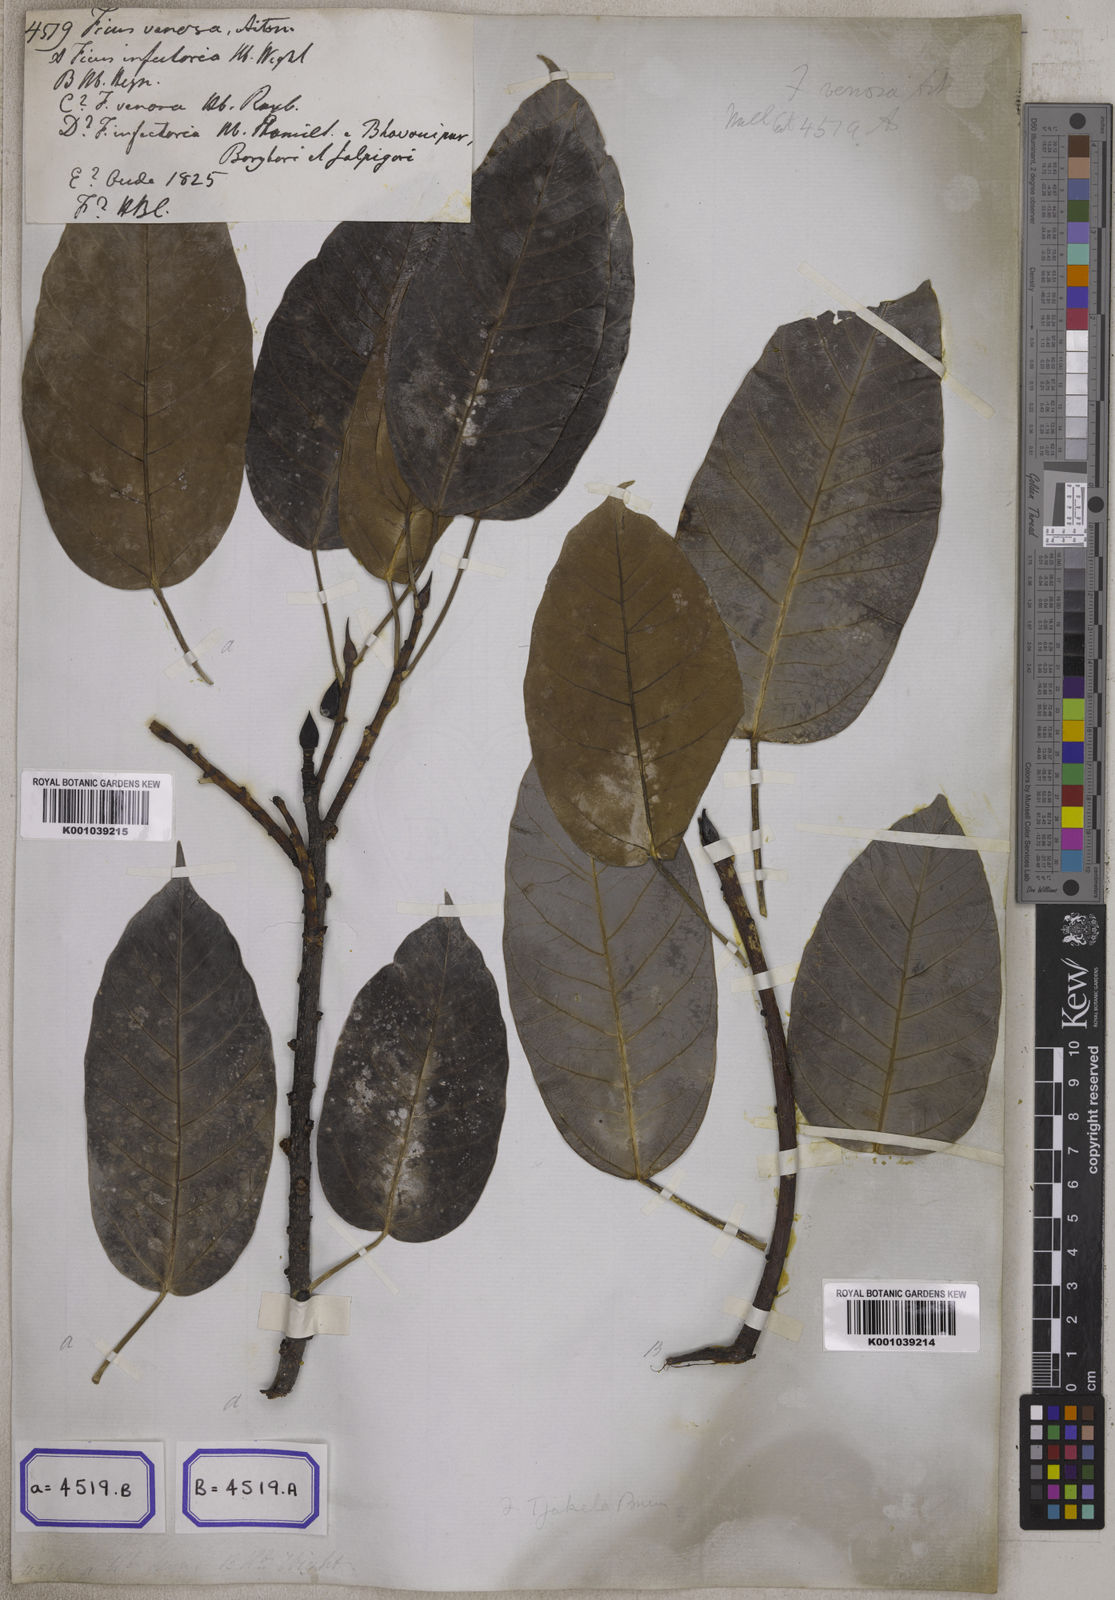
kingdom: Plantae
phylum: Tracheophyta
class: Magnoliopsida
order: Rosales
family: Moraceae
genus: Ficus
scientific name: Ficus
